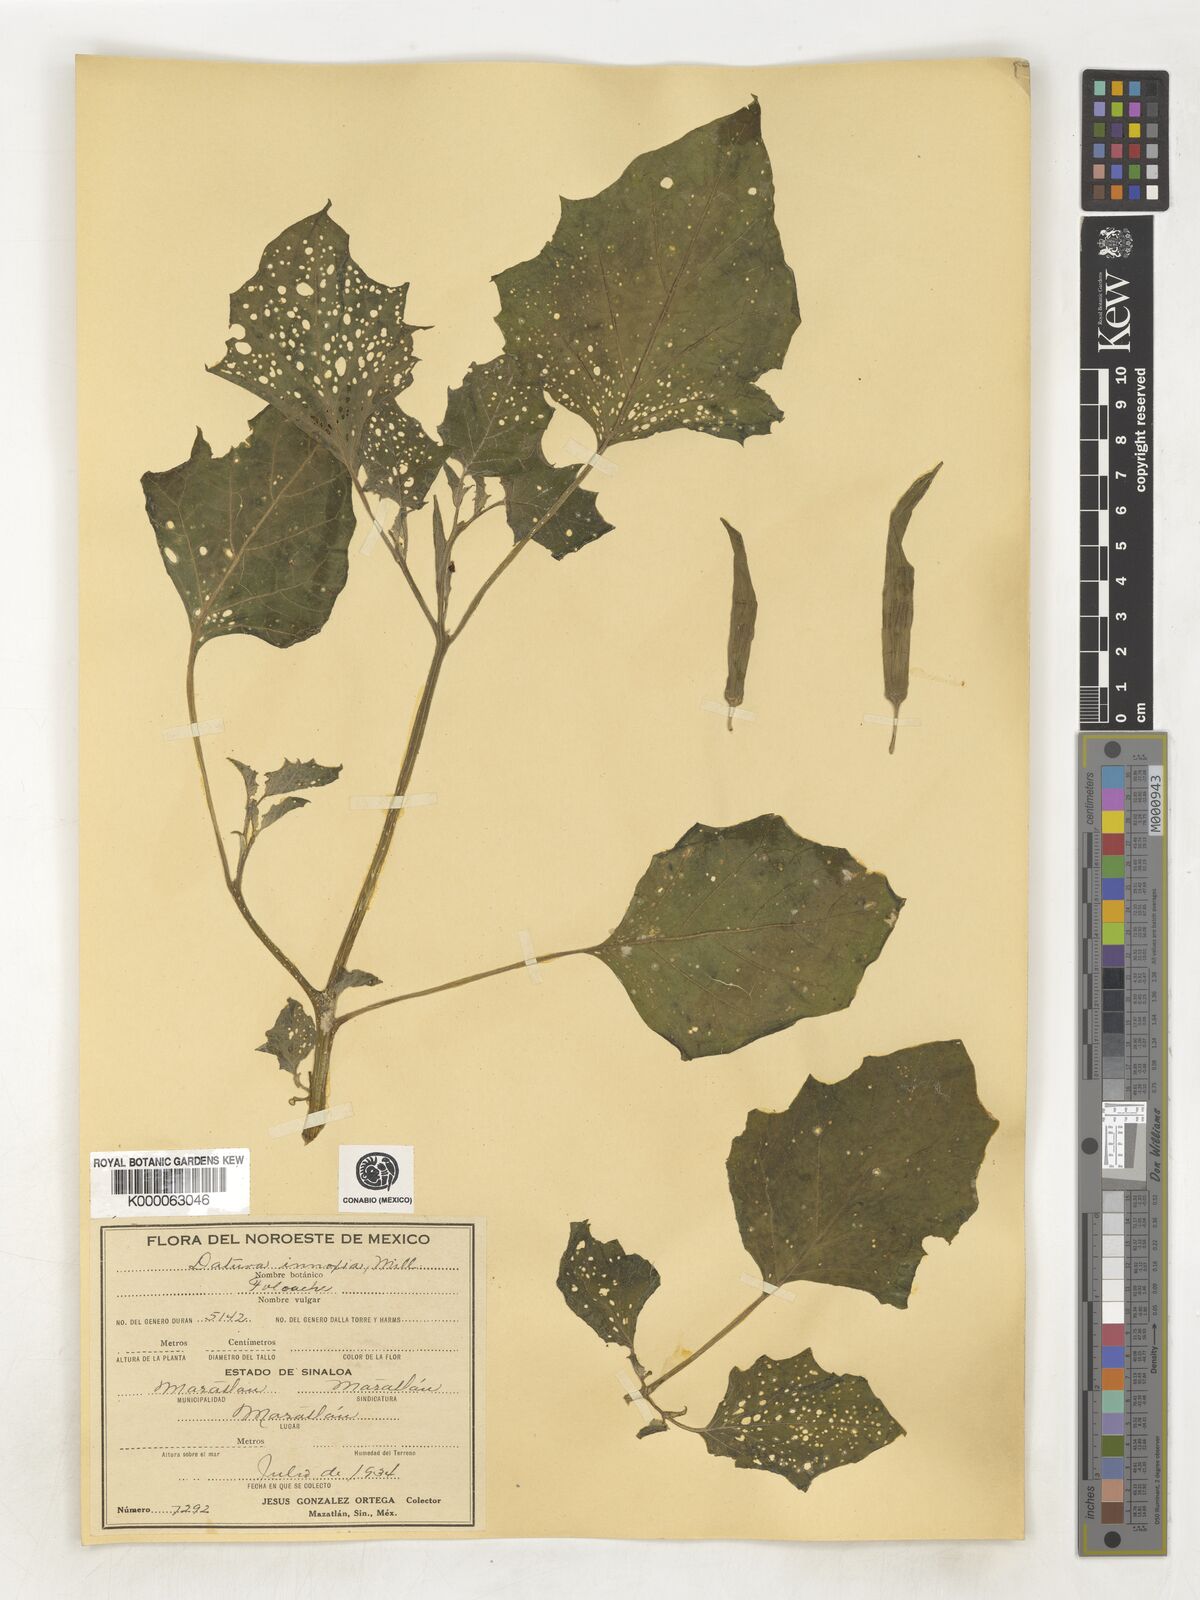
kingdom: Plantae
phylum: Tracheophyta
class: Magnoliopsida
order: Solanales
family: Solanaceae
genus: Datura
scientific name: Datura
